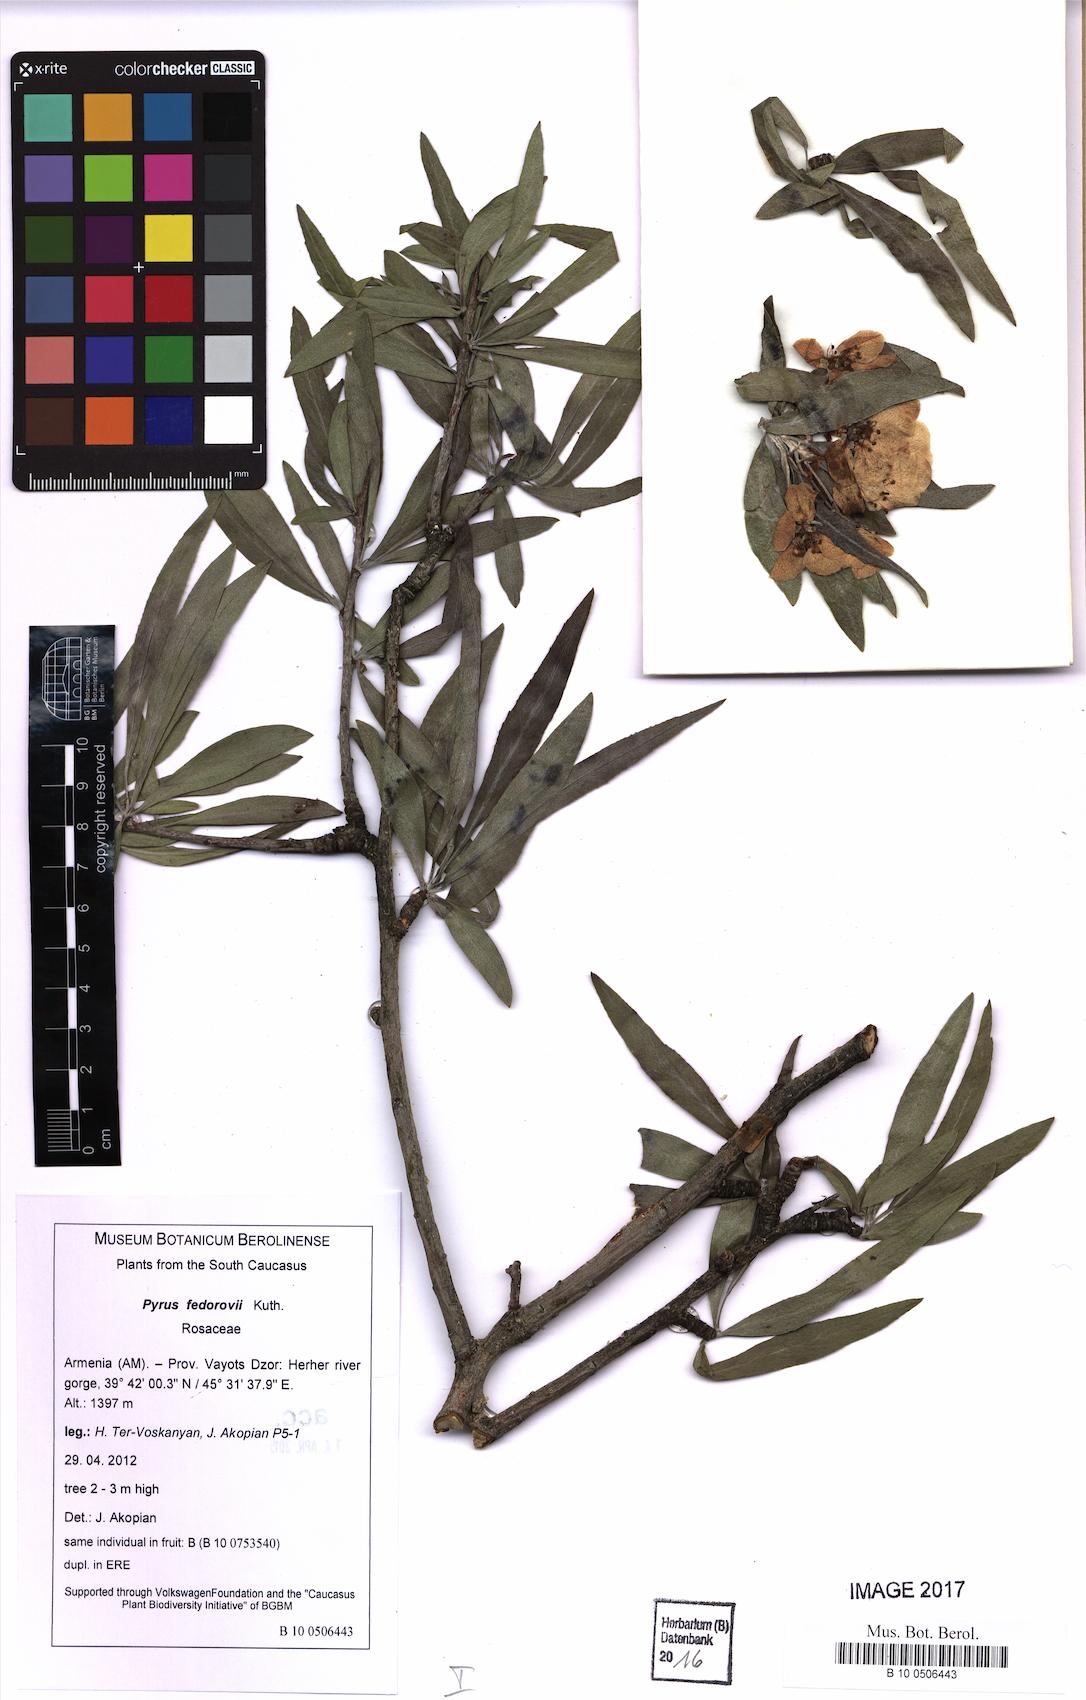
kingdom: Plantae
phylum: Tracheophyta
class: Magnoliopsida
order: Rosales
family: Rosaceae
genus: Pyrus
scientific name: Pyrus fedorovii
